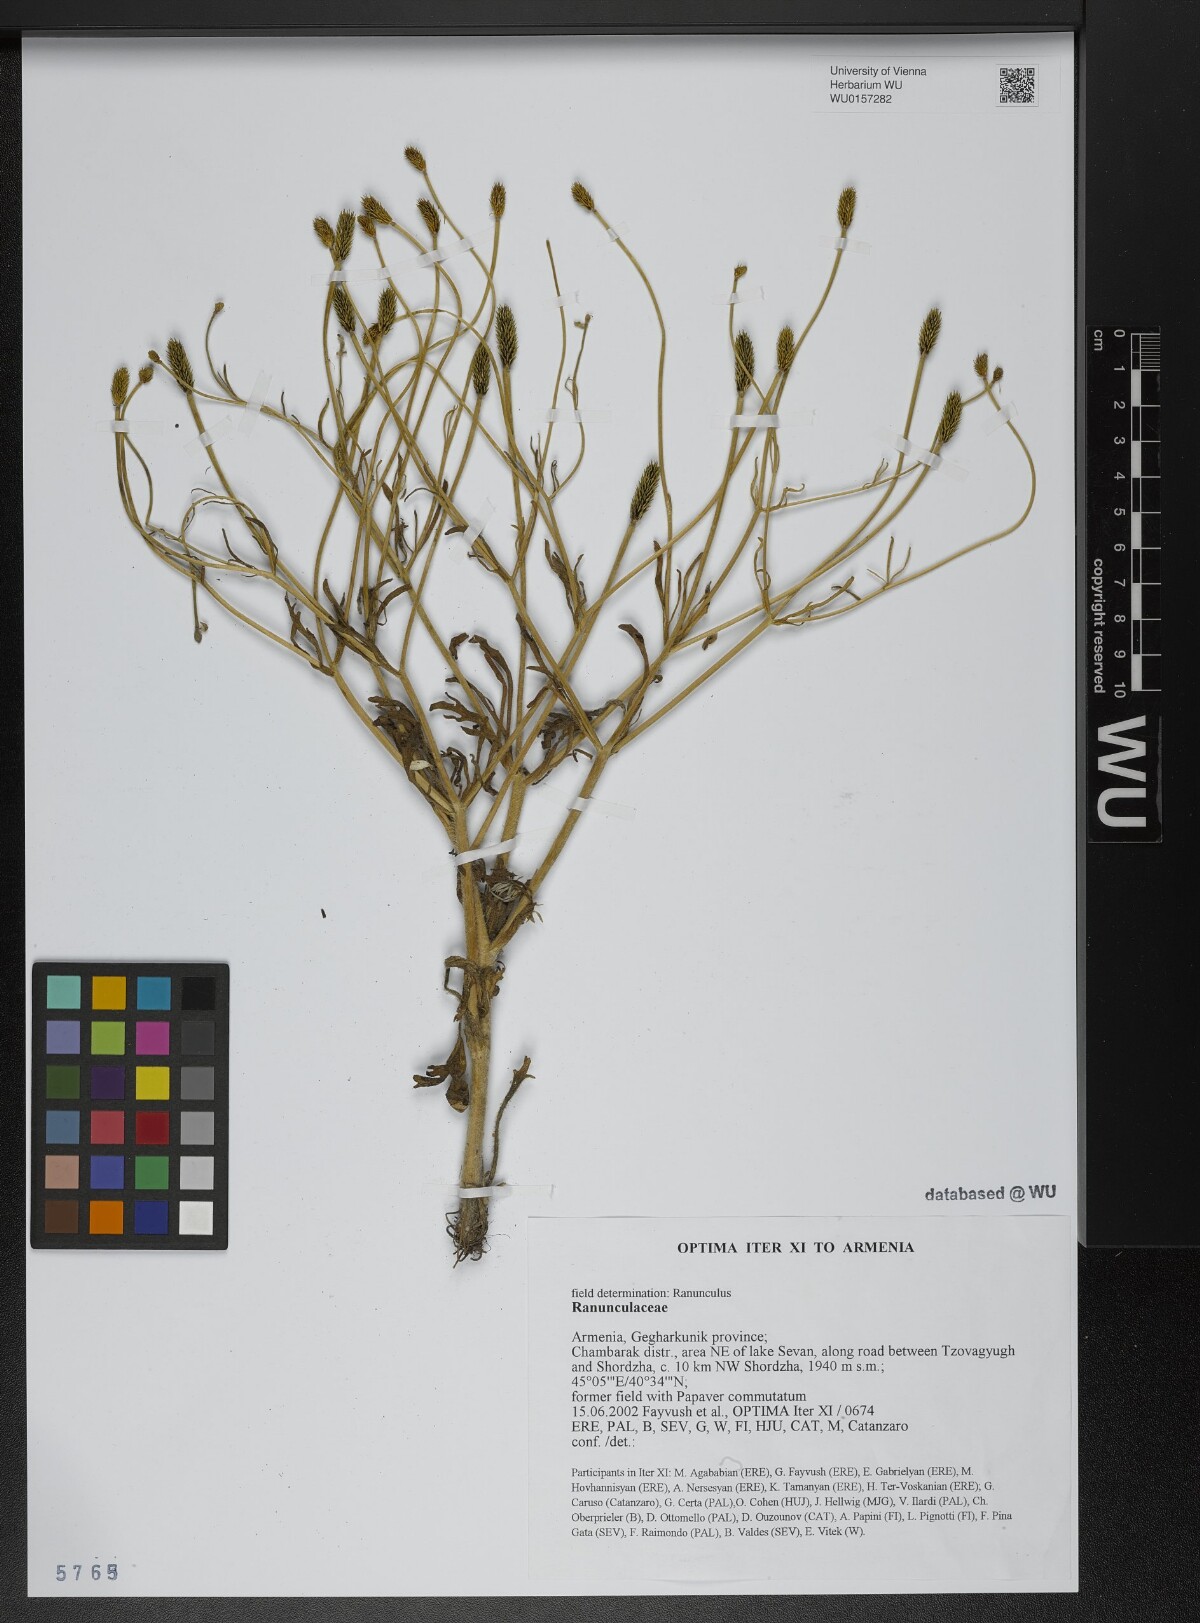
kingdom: Plantae
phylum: Tracheophyta
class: Magnoliopsida
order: Ranunculales
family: Ranunculaceae
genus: Ranunculus
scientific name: Ranunculus
